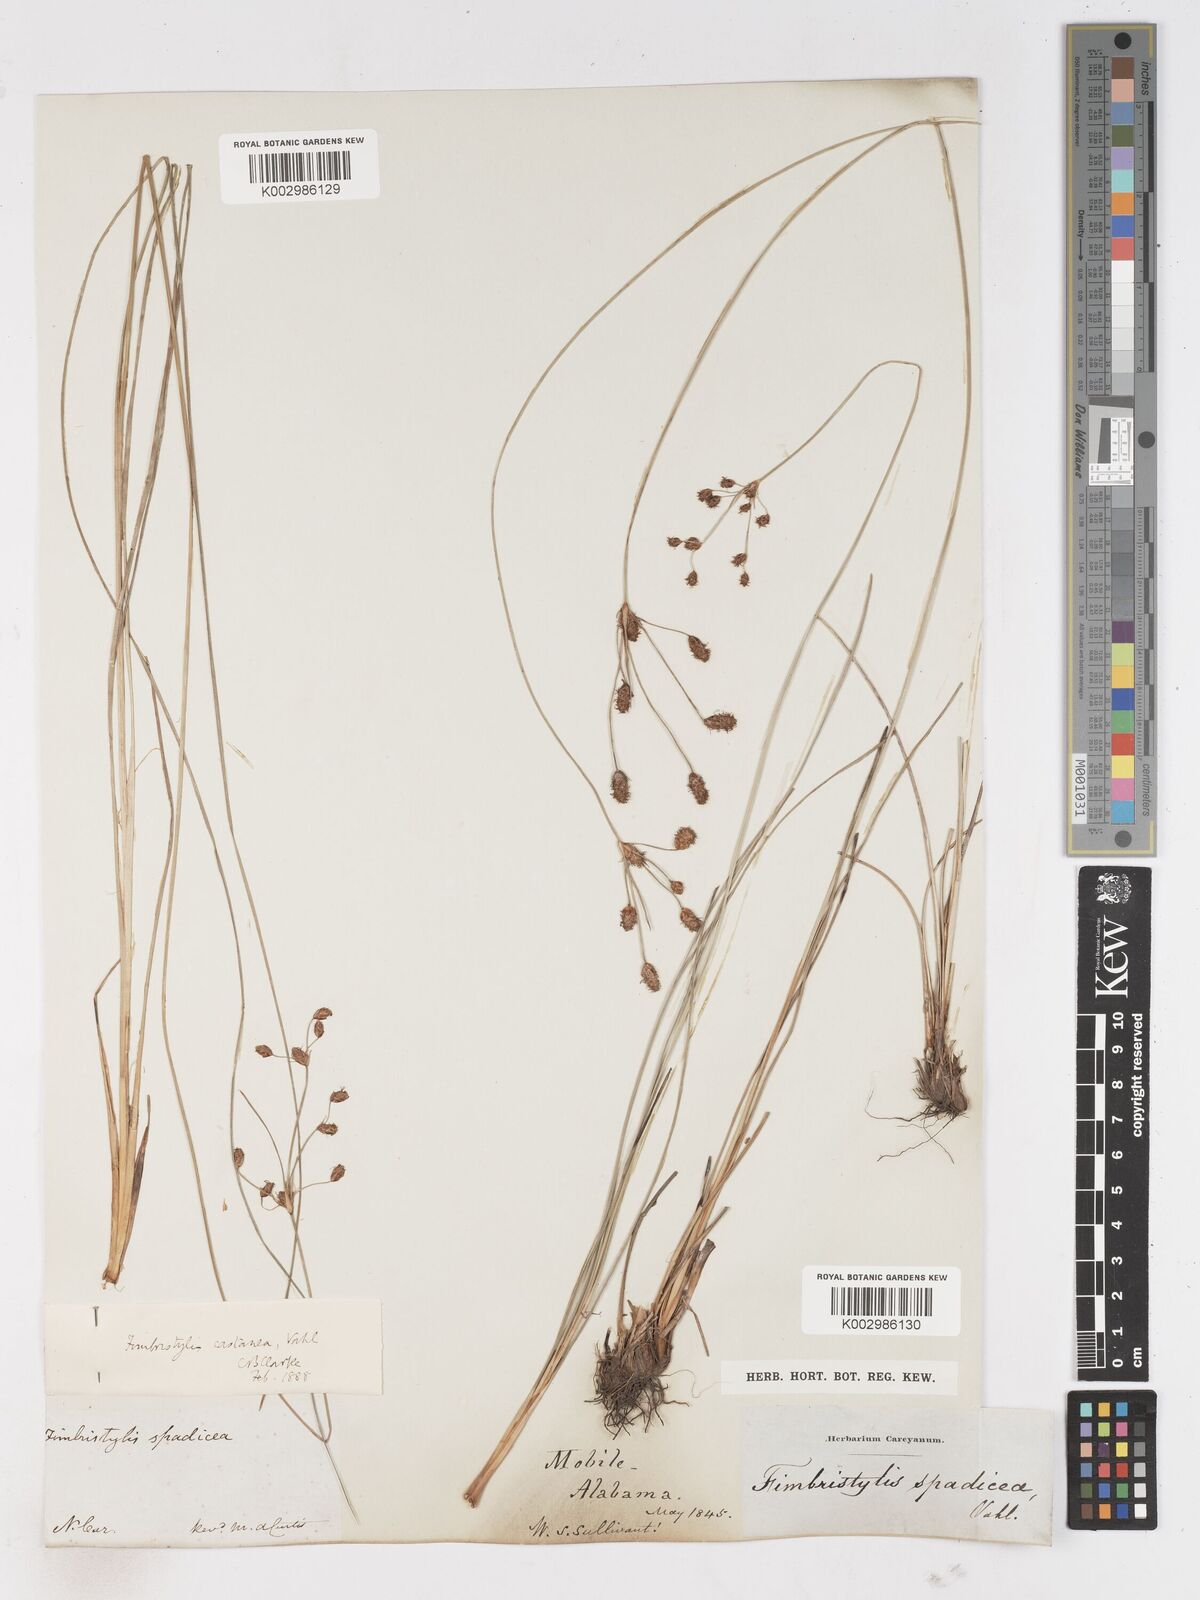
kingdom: Plantae
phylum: Tracheophyta
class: Liliopsida
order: Poales
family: Cyperaceae
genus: Fimbristylis
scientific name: Fimbristylis spadicea
